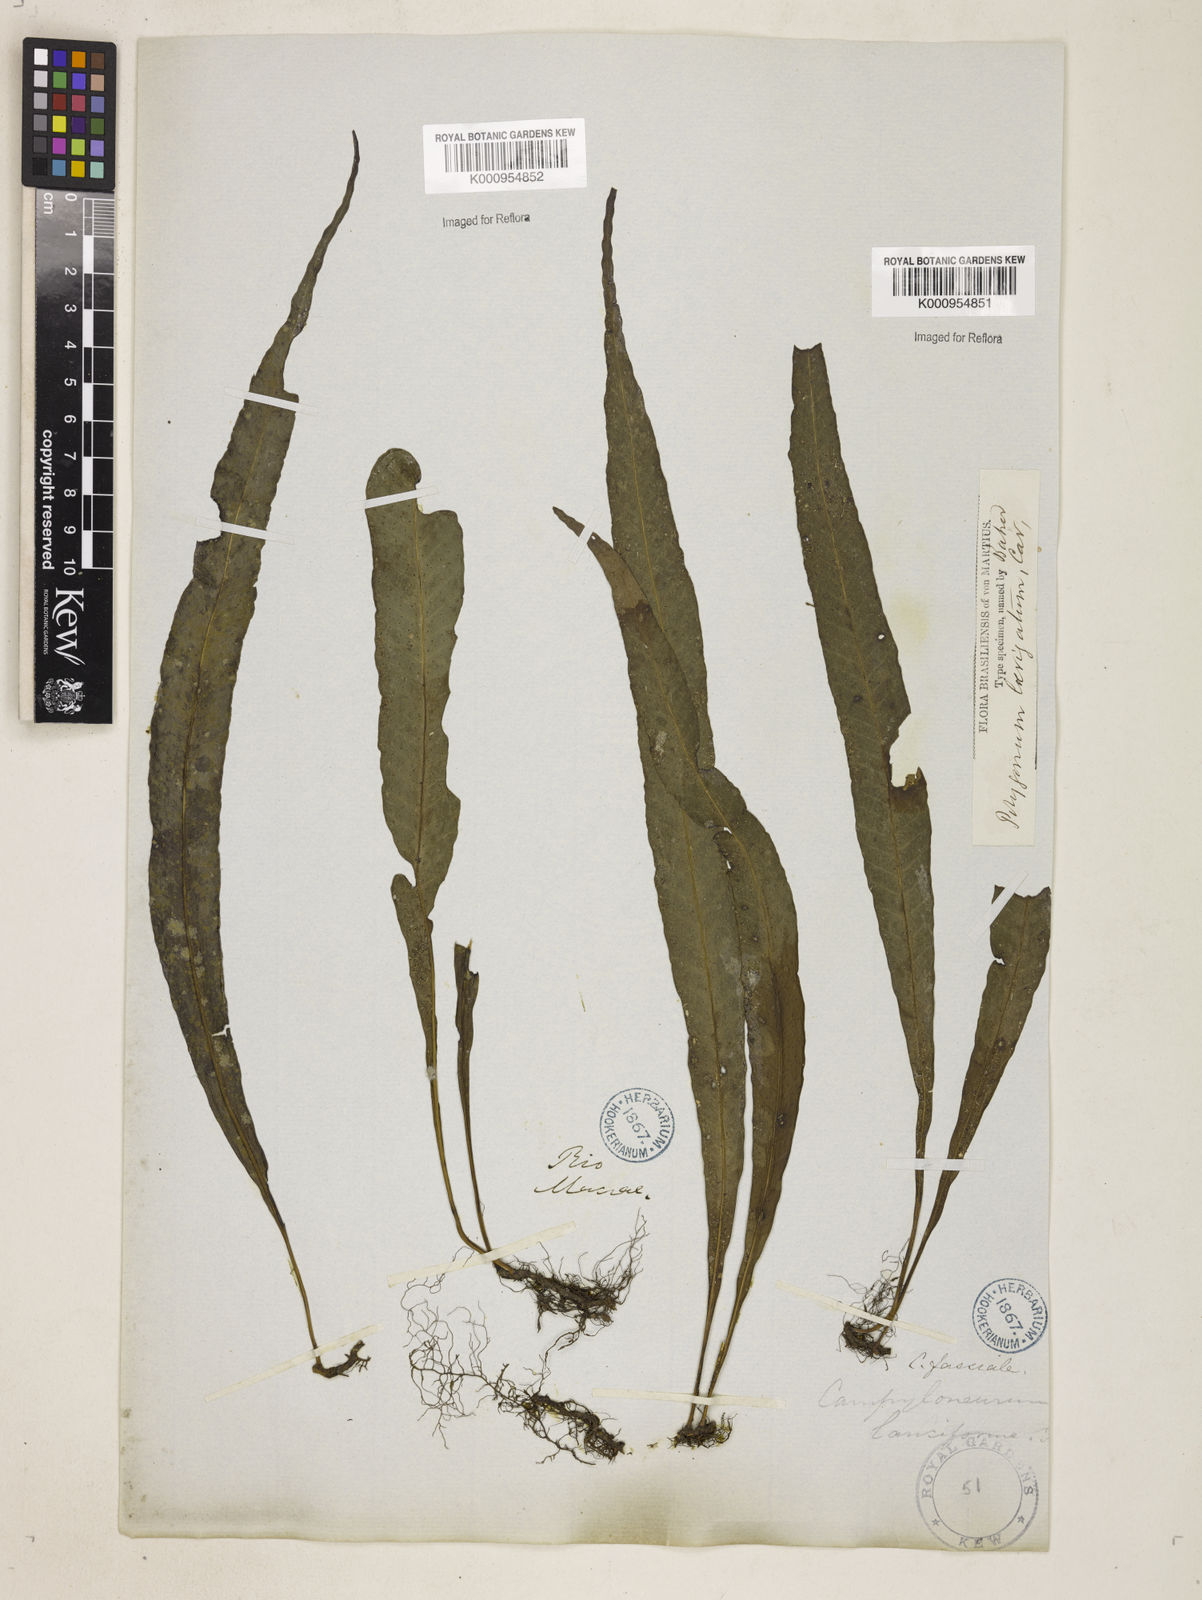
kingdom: Plantae
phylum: Tracheophyta
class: Polypodiopsida
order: Polypodiales
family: Polypodiaceae
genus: Campyloneurum
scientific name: Campyloneurum repens
